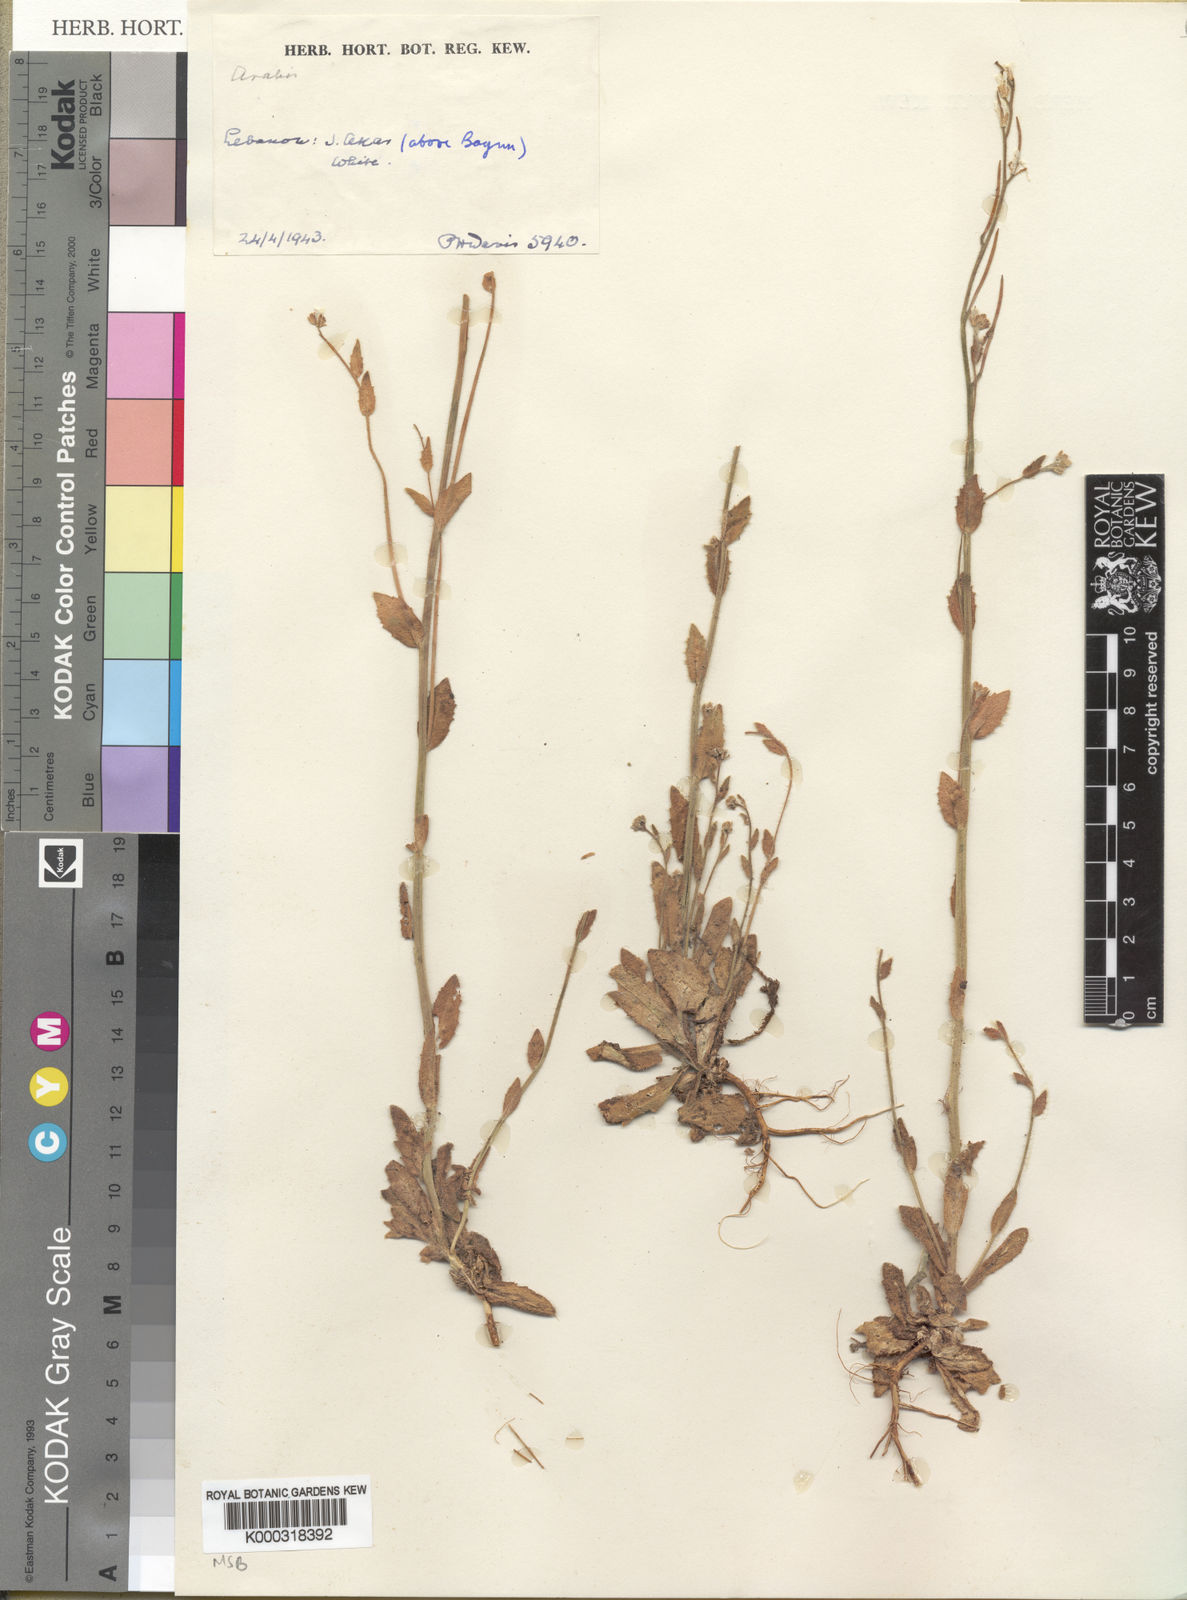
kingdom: Plantae
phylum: Tracheophyta
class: Magnoliopsida
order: Brassicales
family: Brassicaceae
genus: Arabis
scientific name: Arabis aucheri
